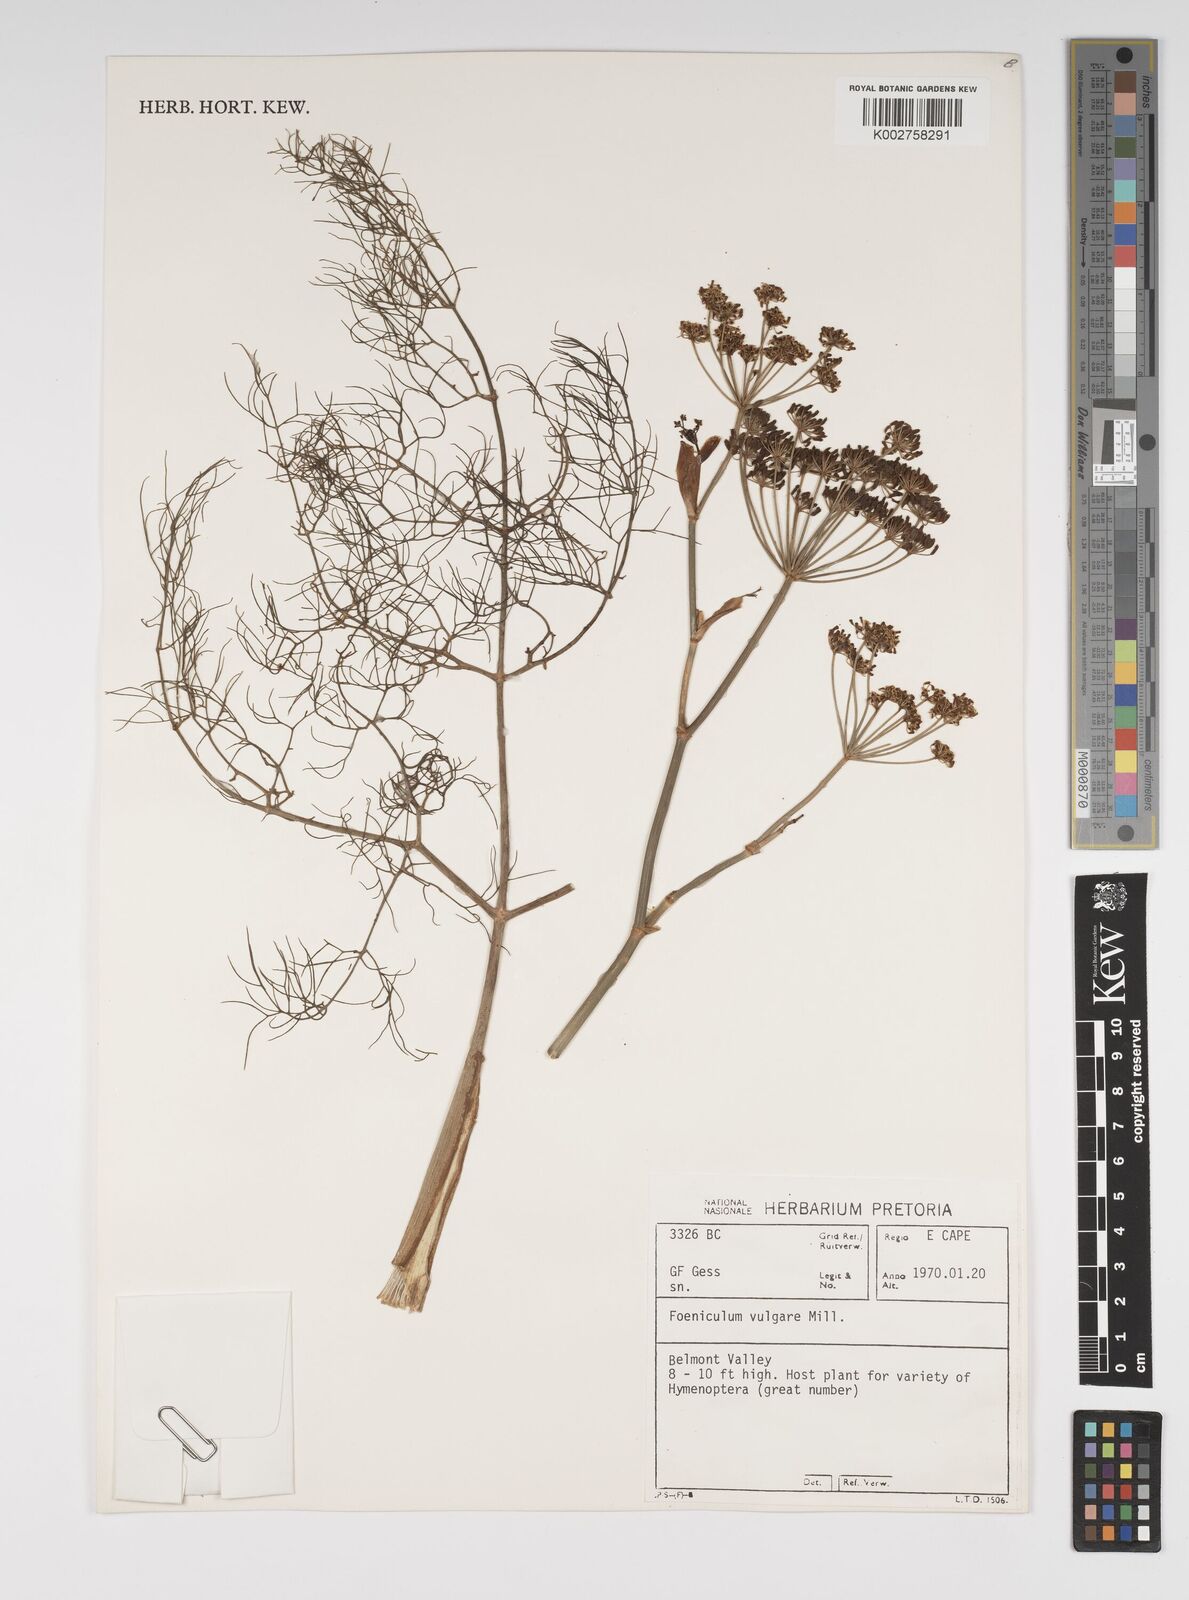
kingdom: Plantae
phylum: Tracheophyta
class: Magnoliopsida
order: Apiales
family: Apiaceae
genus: Foeniculum
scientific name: Foeniculum vulgare
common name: Fennel
